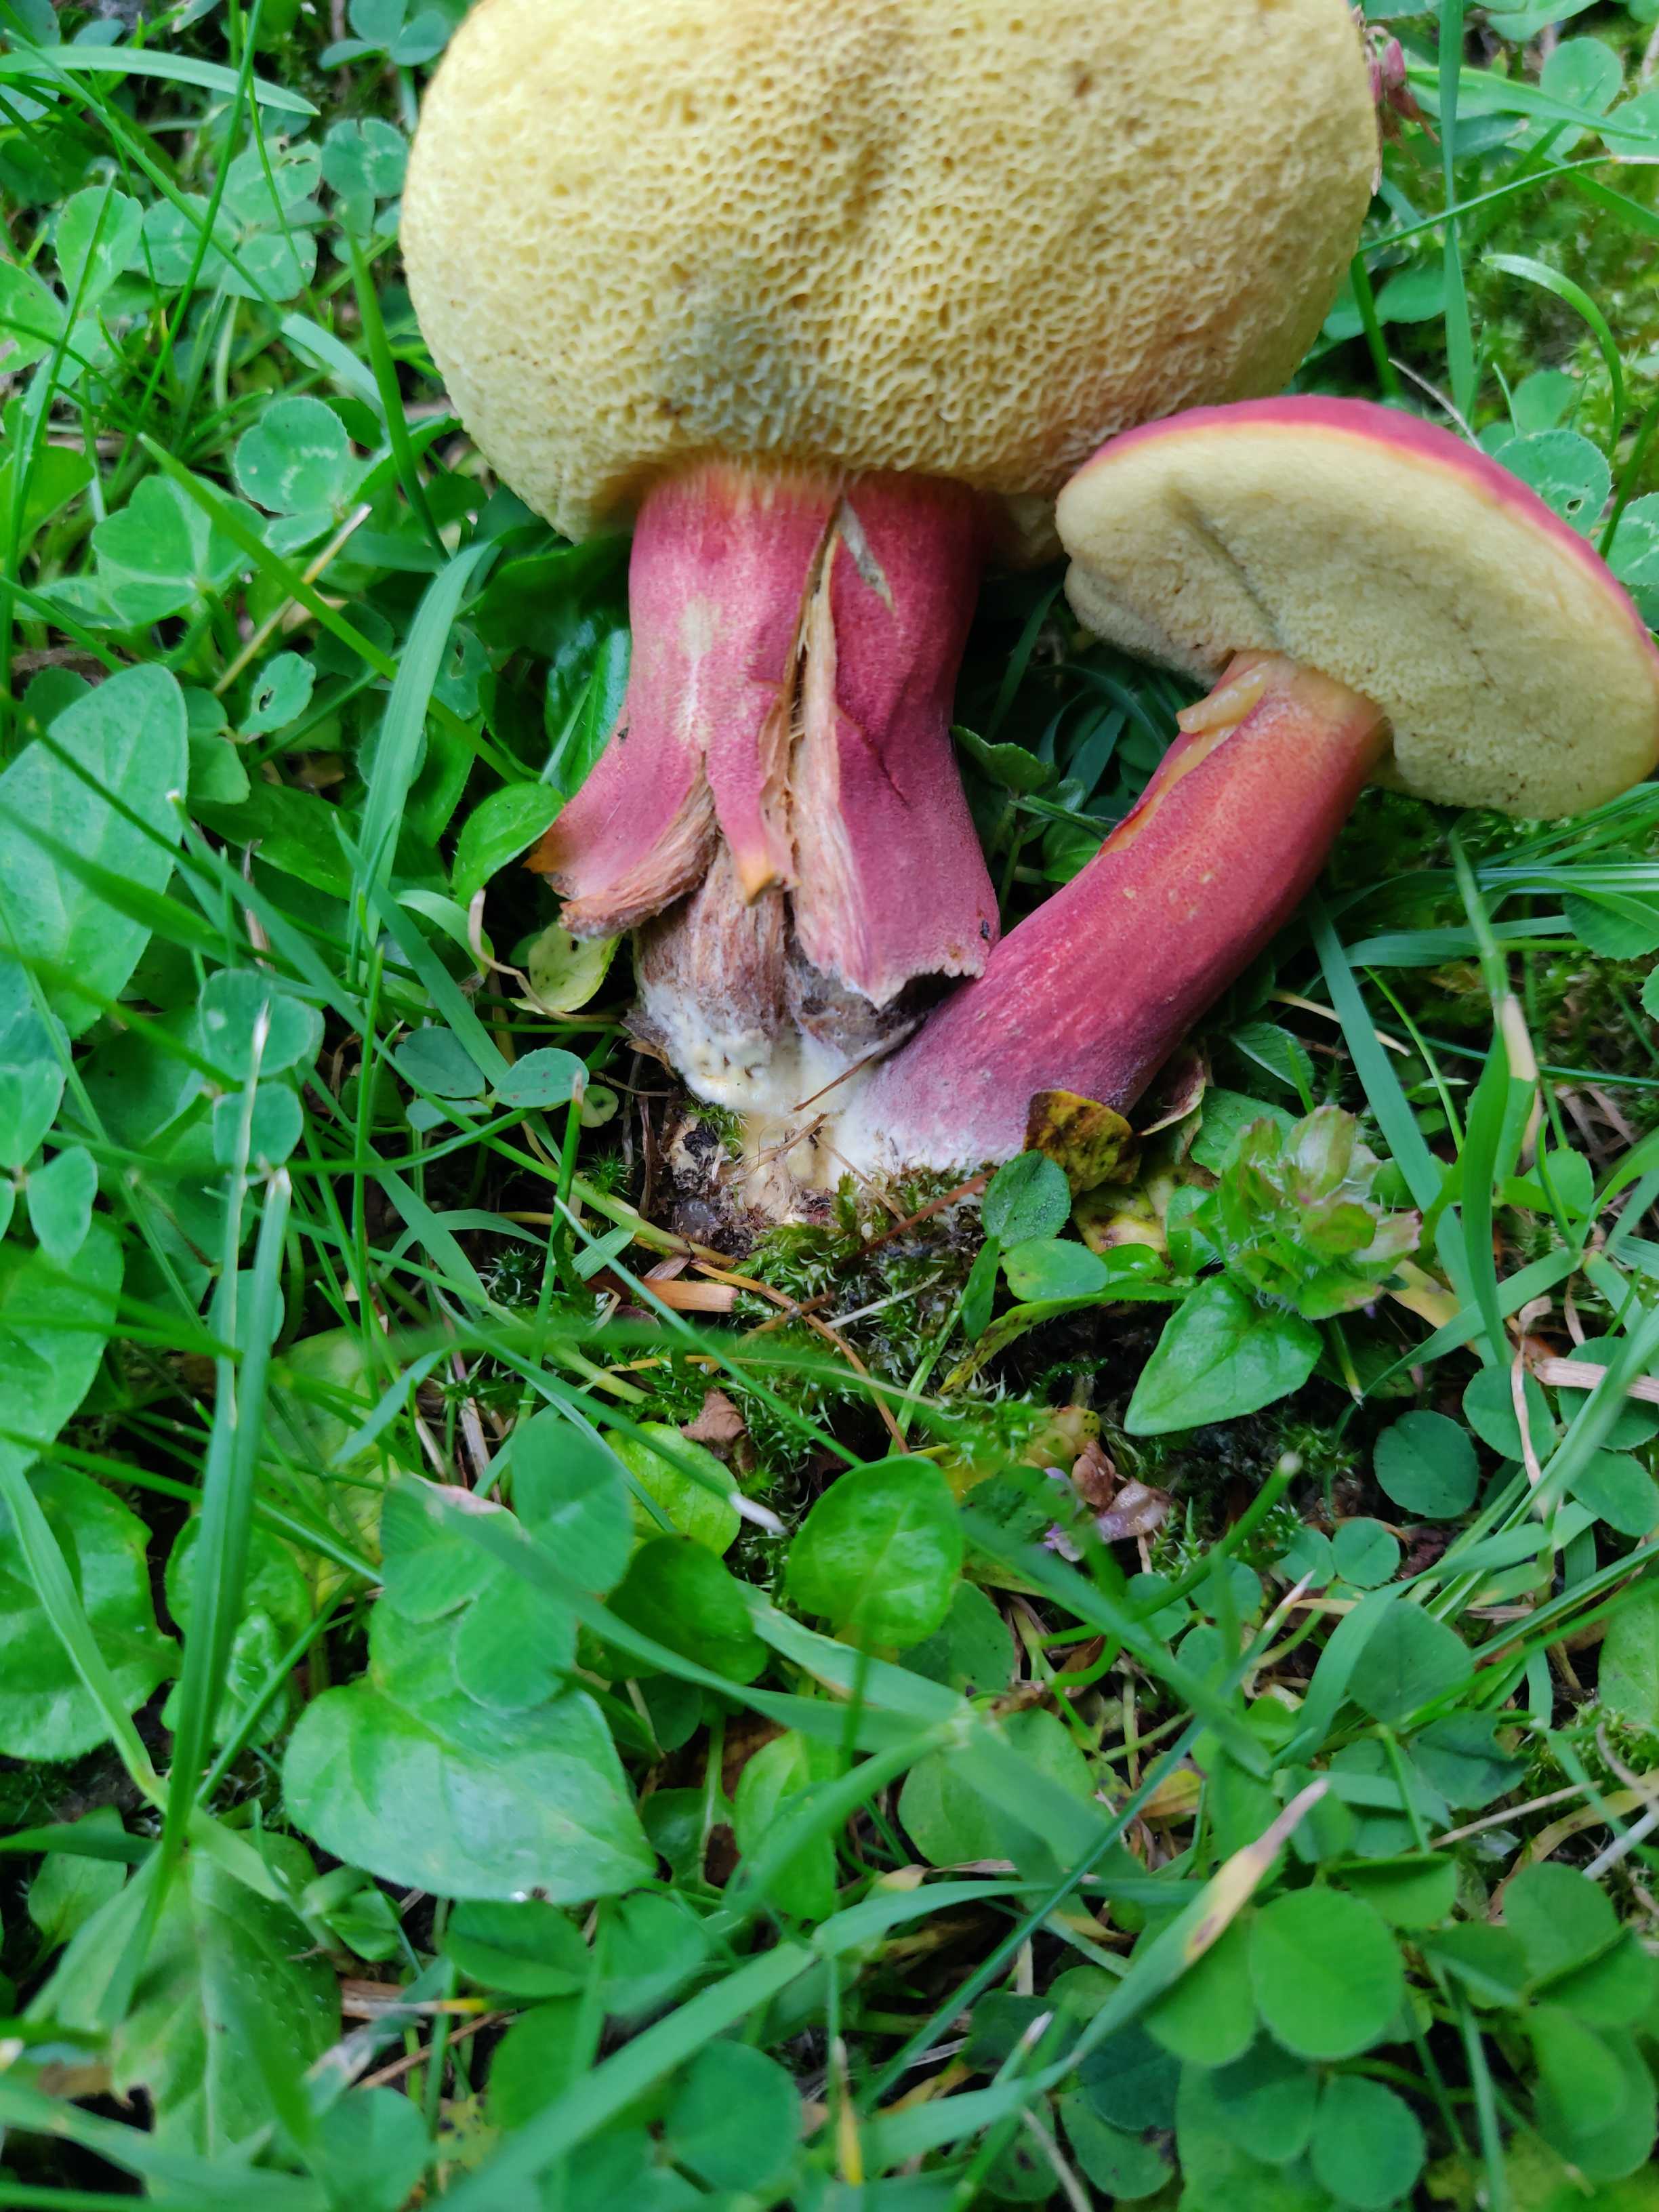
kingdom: Fungi
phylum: Basidiomycota
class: Agaricomycetes
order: Boletales
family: Boletaceae
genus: Hortiboletus
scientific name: Hortiboletus rubellus
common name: blodrød rørhat
